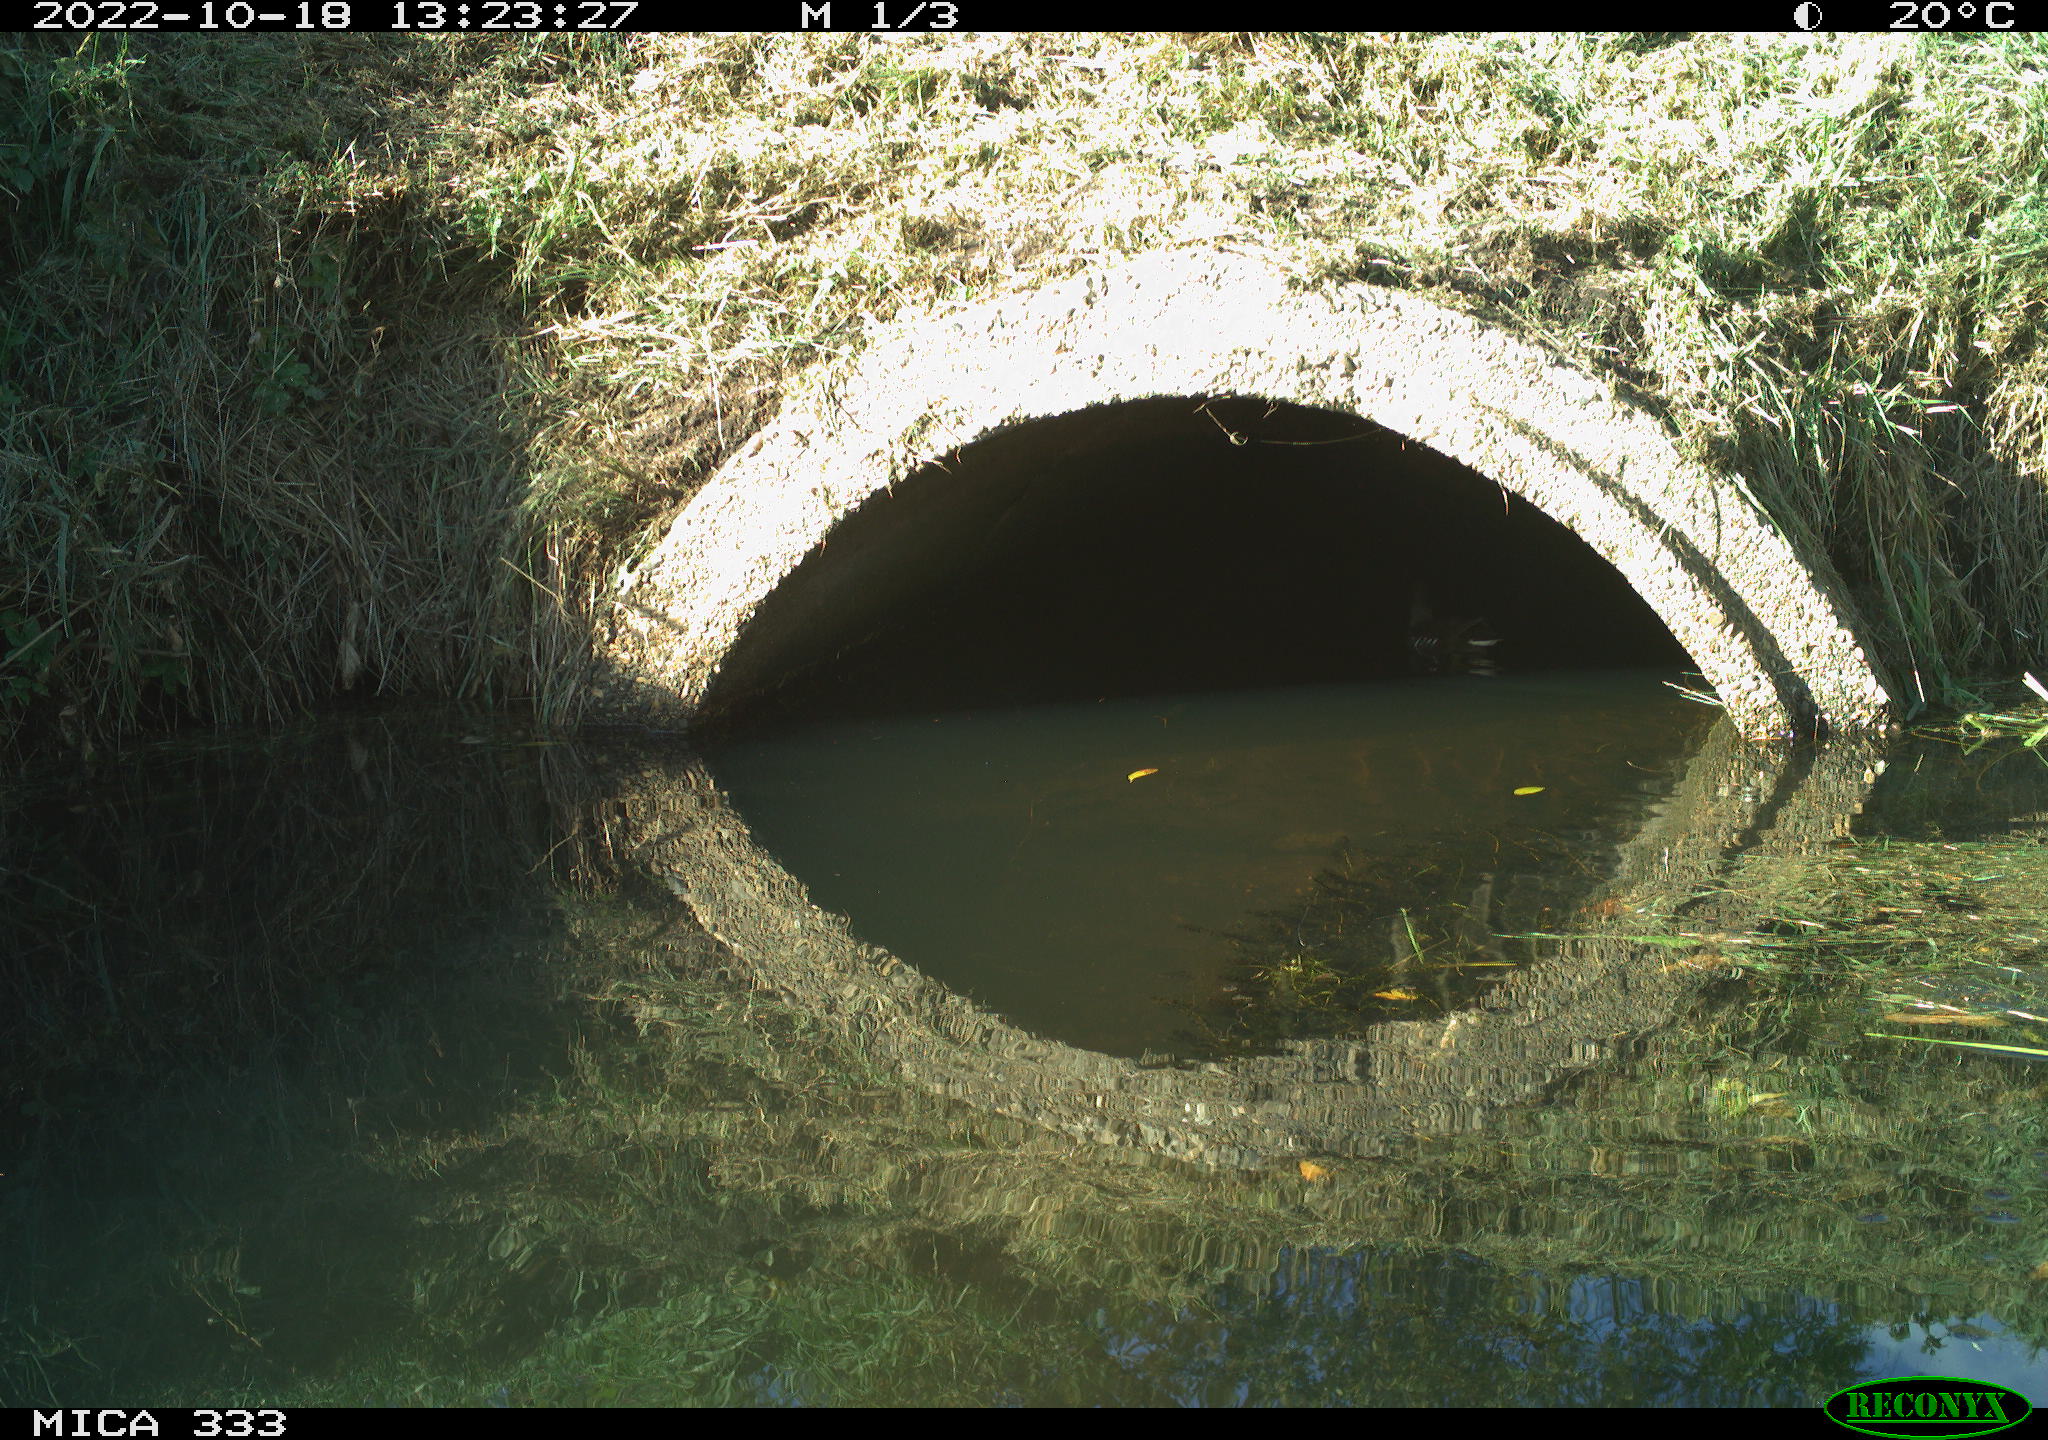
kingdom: Animalia
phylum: Chordata
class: Aves
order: Gruiformes
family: Rallidae
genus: Gallinula
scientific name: Gallinula chloropus
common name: Common moorhen
